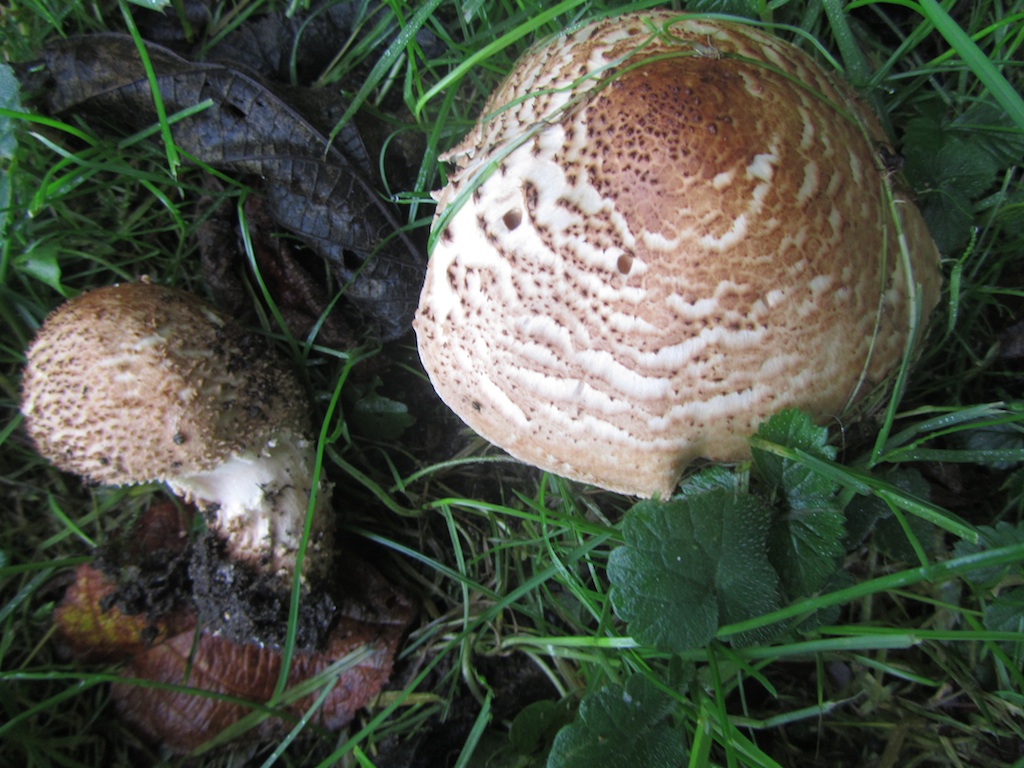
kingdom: Fungi
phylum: Basidiomycota
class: Agaricomycetes
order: Agaricales
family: Agaricaceae
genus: Echinoderma
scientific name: Echinoderma asperum
